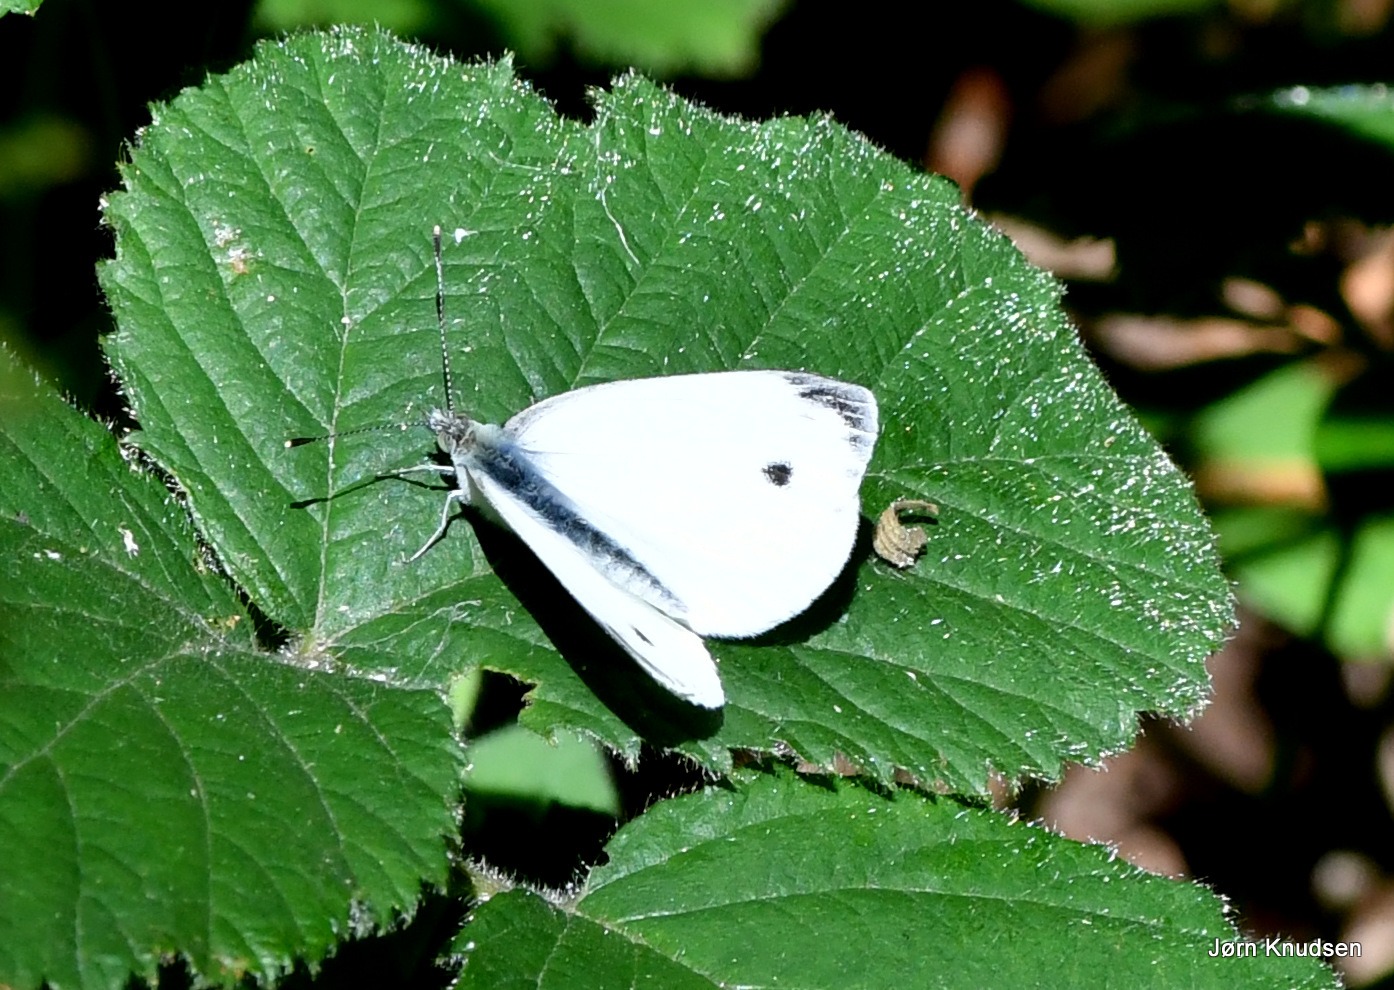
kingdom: Animalia
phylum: Arthropoda
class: Insecta
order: Lepidoptera
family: Pieridae
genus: Pieris
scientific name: Pieris napi
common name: Grønåret kålsommerfugl
